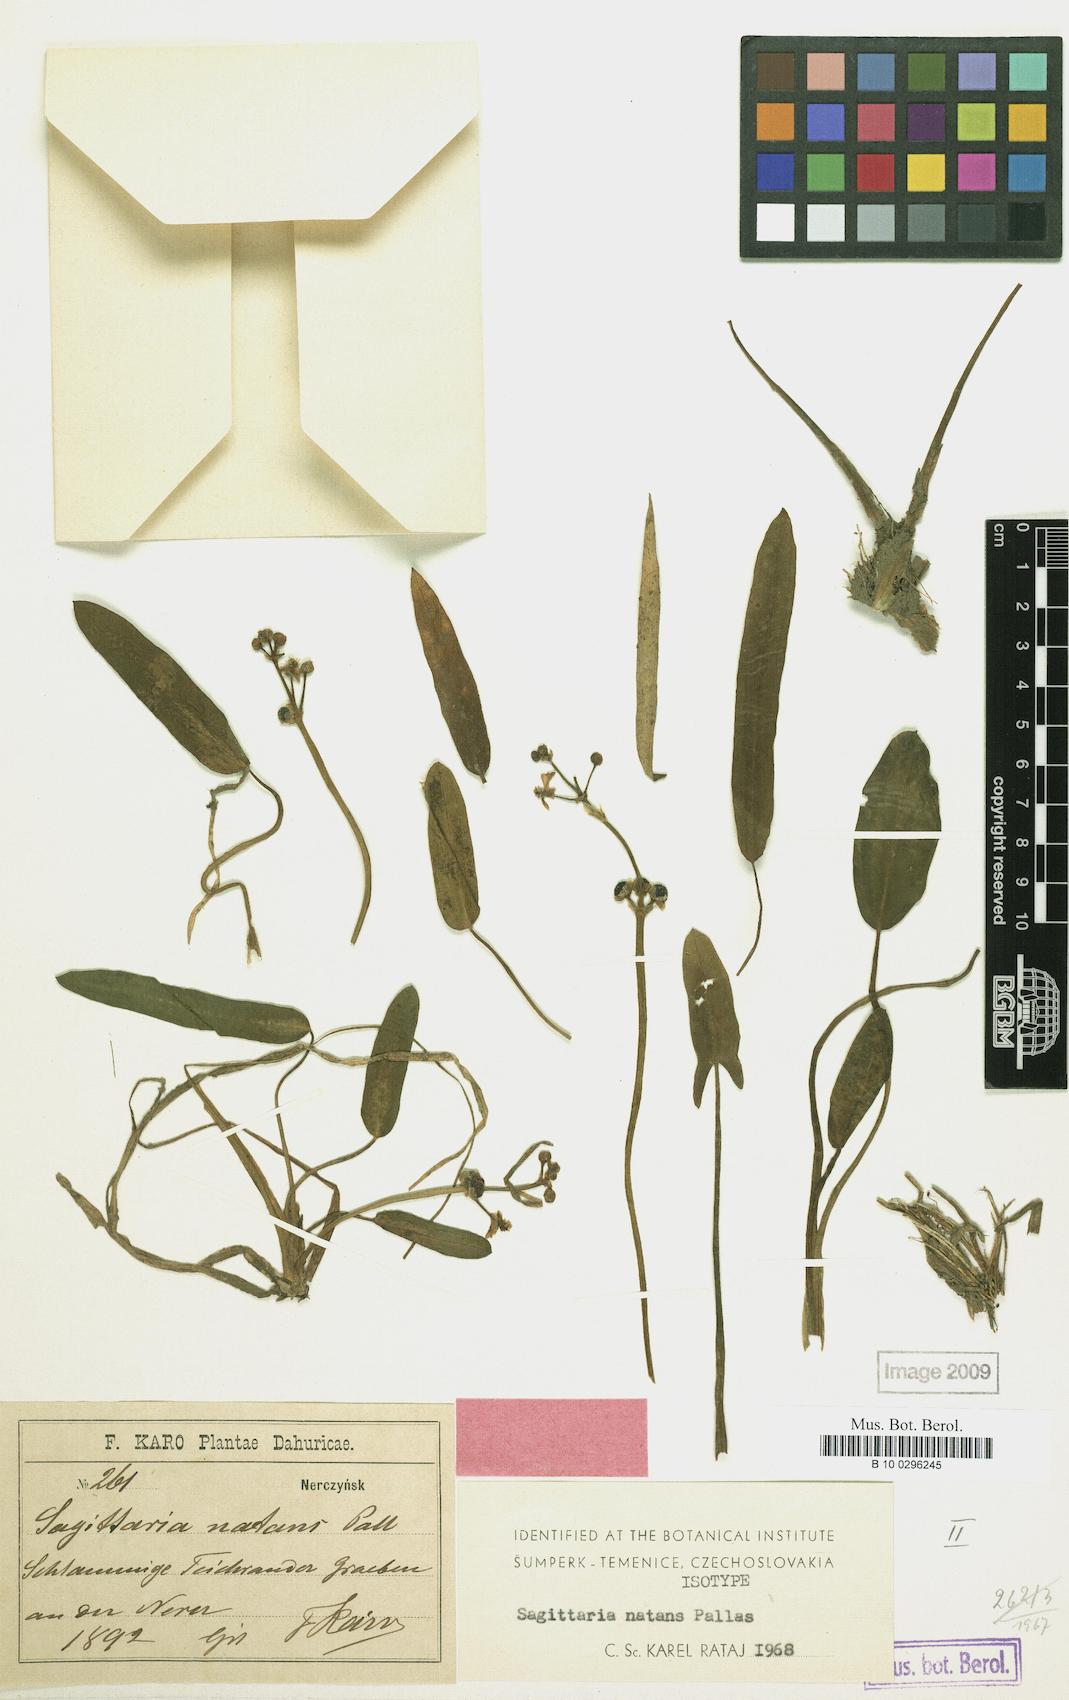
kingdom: Plantae
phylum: Tracheophyta
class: Liliopsida
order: Alismatales
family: Alismataceae
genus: Sagittaria
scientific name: Sagittaria natans
